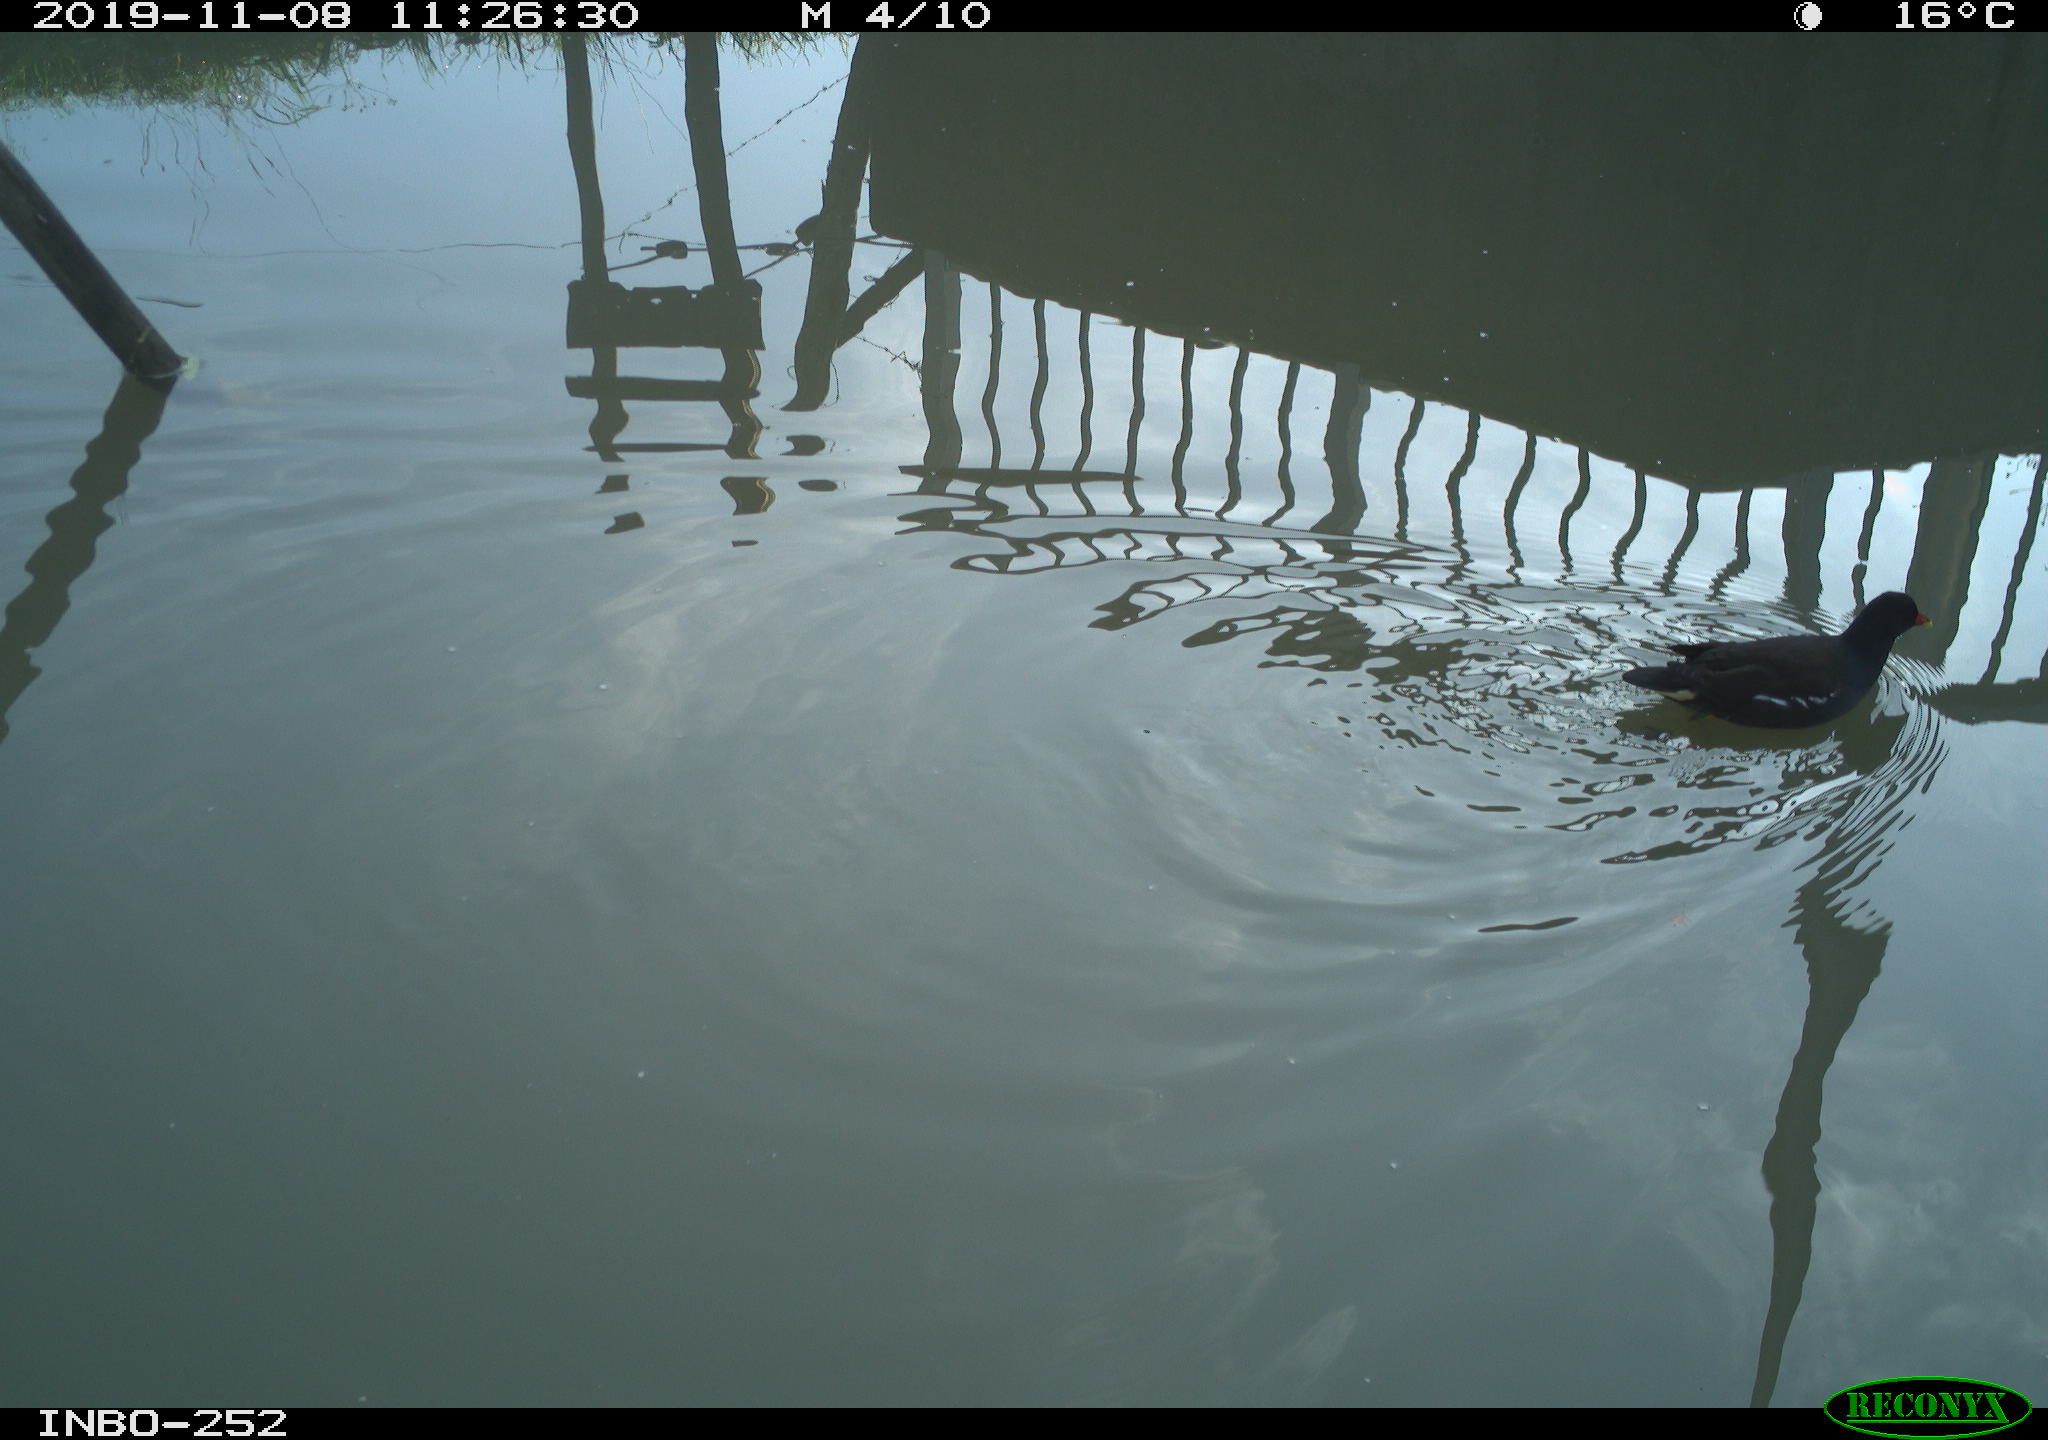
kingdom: Animalia
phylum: Chordata
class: Aves
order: Gruiformes
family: Rallidae
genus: Gallinula
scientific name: Gallinula chloropus
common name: Common moorhen
